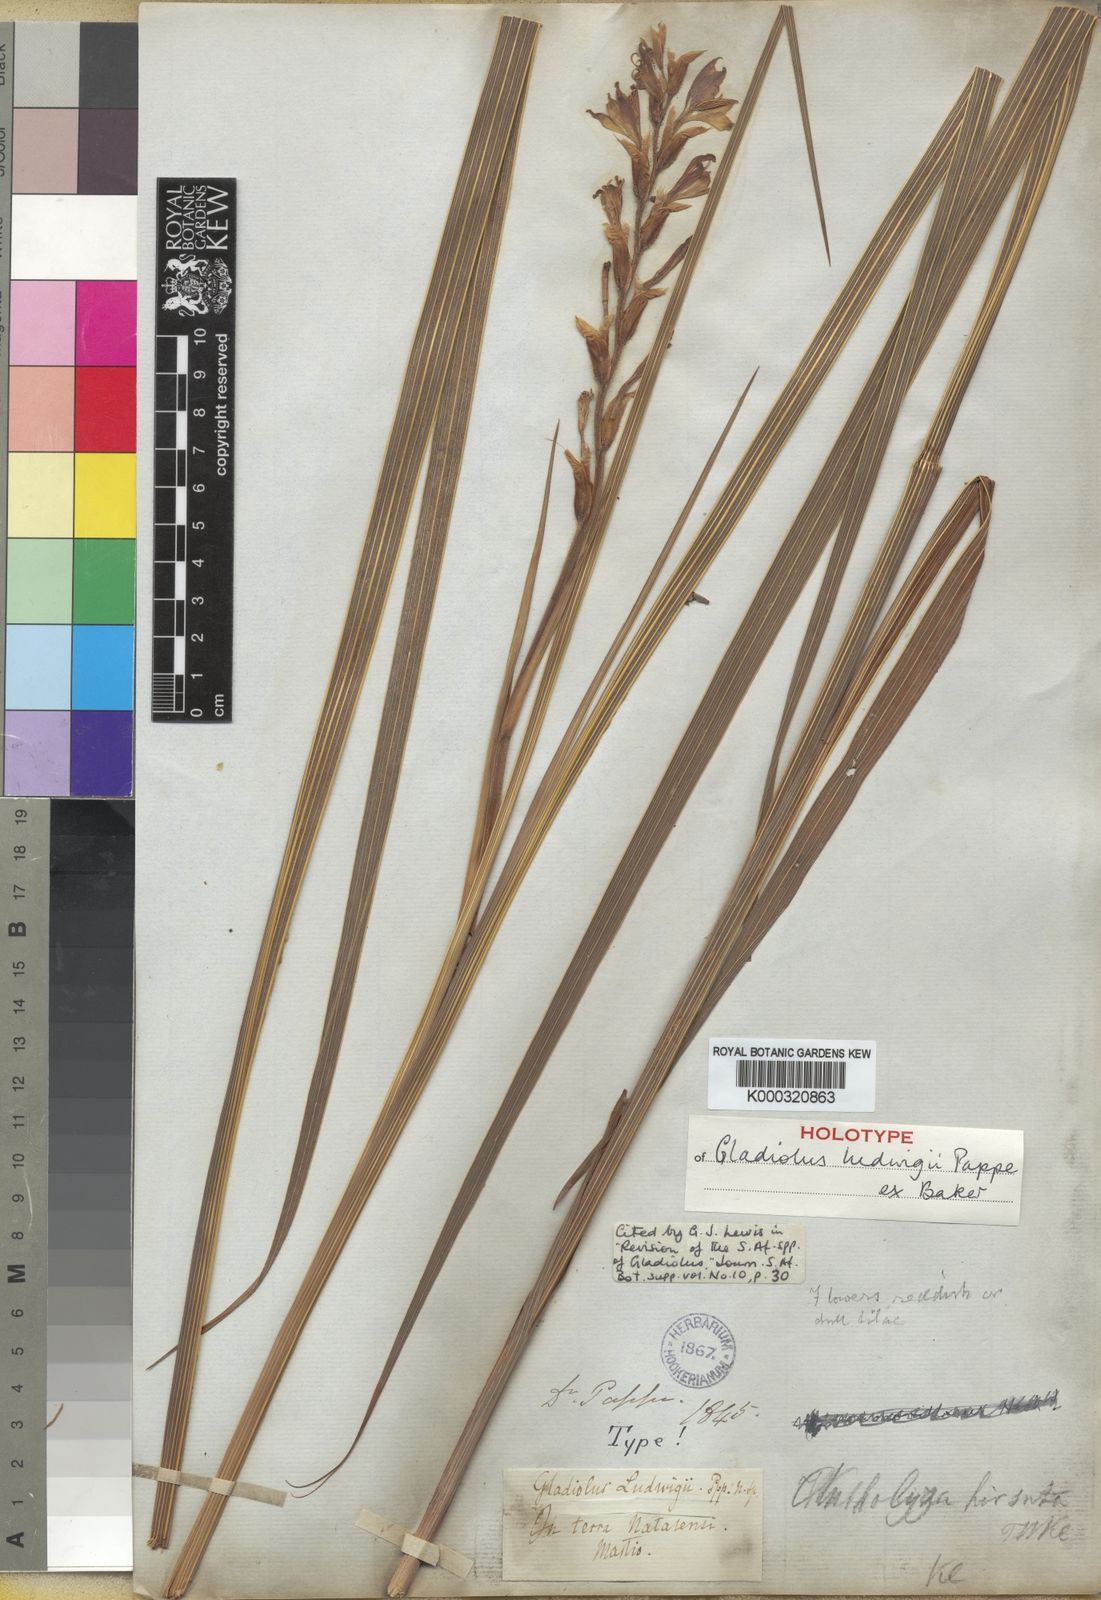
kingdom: Plantae
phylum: Tracheophyta
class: Liliopsida
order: Asparagales
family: Iridaceae
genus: Gladiolus
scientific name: Gladiolus sericeovillosus
